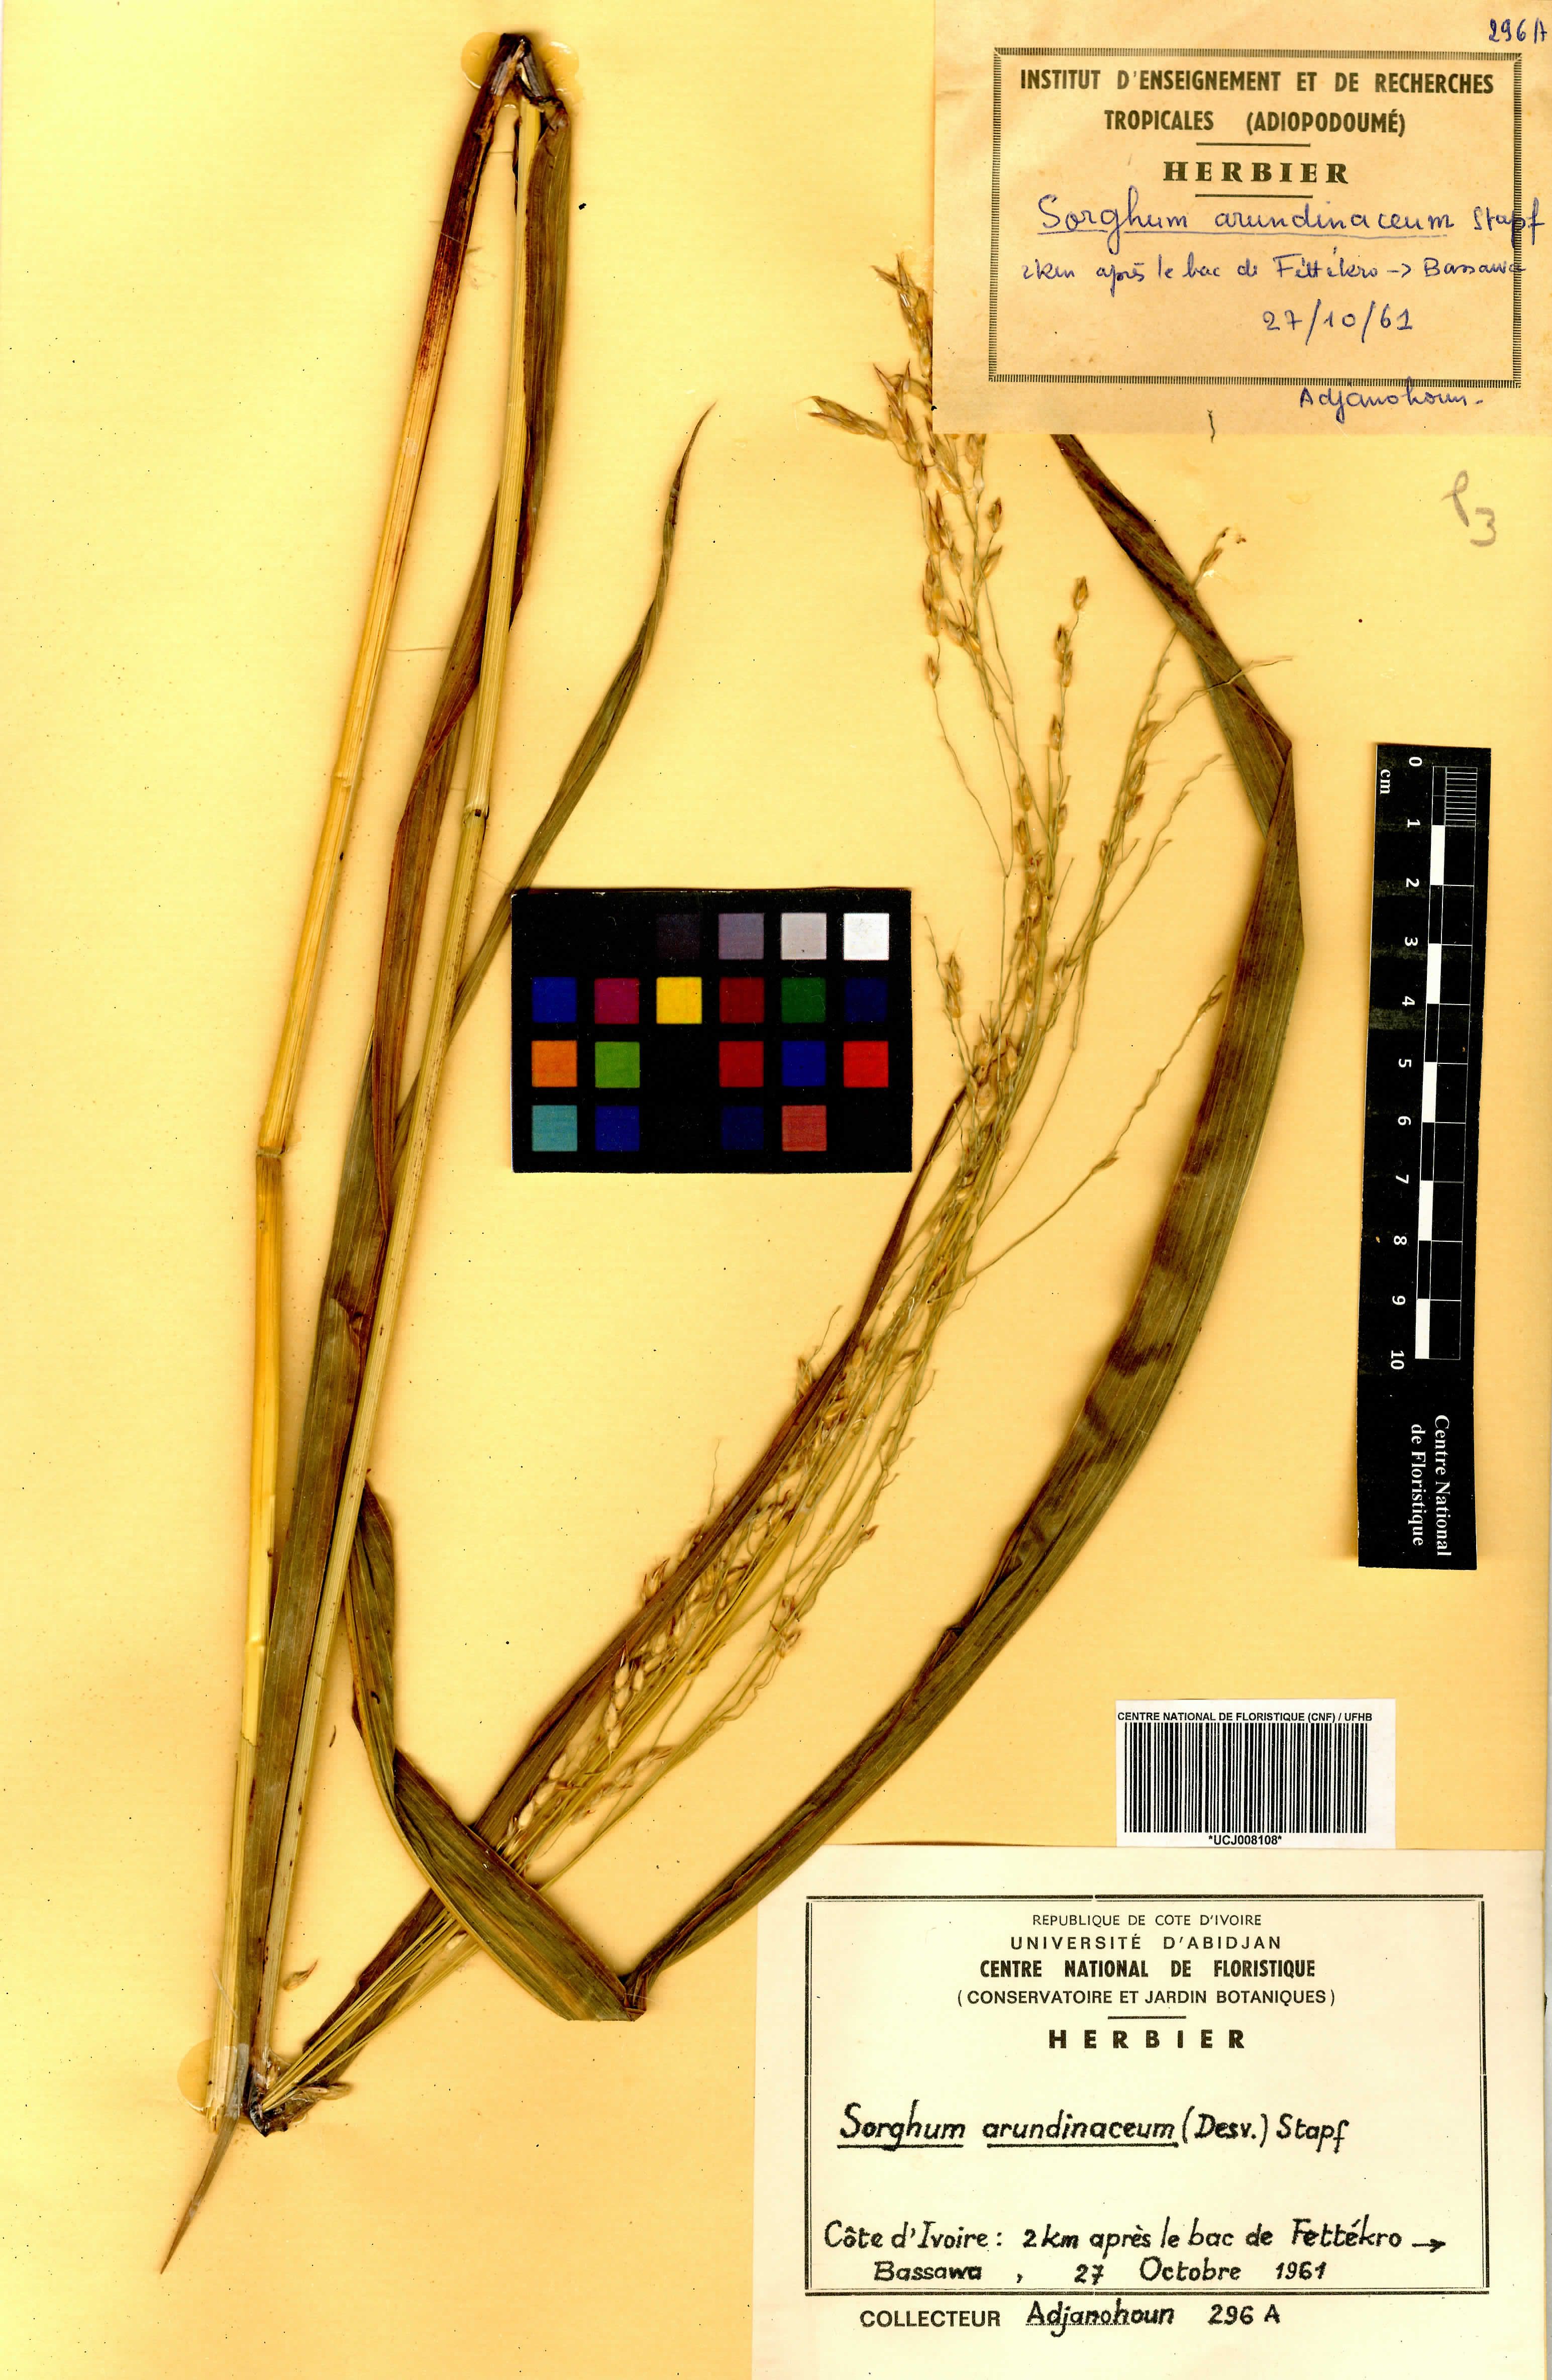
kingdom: Plantae
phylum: Tracheophyta
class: Liliopsida
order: Poales
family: Poaceae
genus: Sorghum
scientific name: Sorghum arundinaceum
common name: Sorghum
